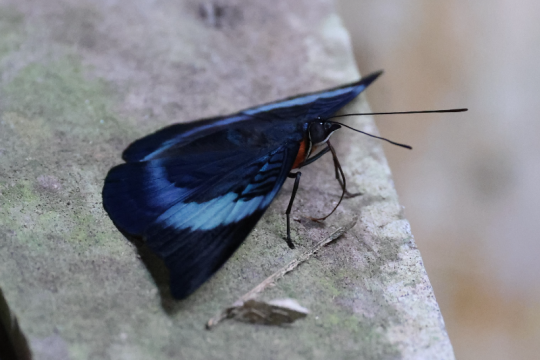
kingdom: Animalia
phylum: Arthropoda
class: Insecta
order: Lepidoptera
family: Nymphalidae
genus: Panacea
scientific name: Panacea procilla
